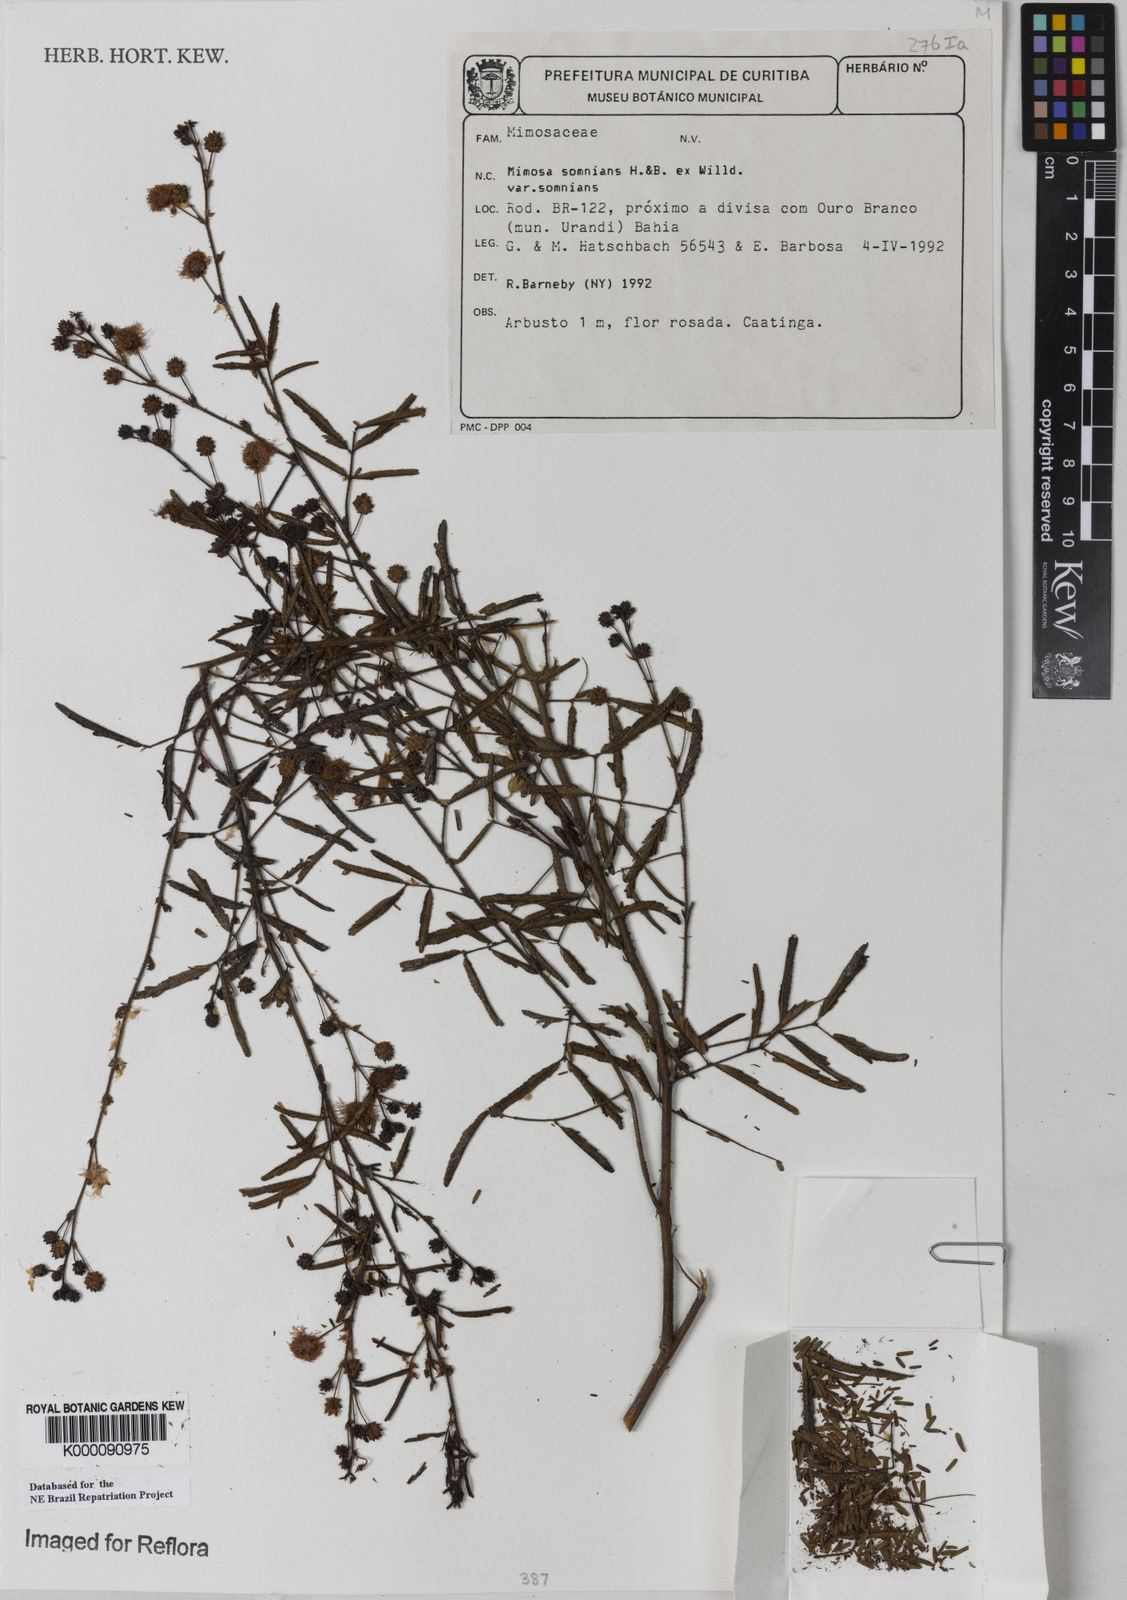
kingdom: Plantae
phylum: Tracheophyta
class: Magnoliopsida
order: Fabales
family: Fabaceae
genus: Mimosa
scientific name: Mimosa somnians
